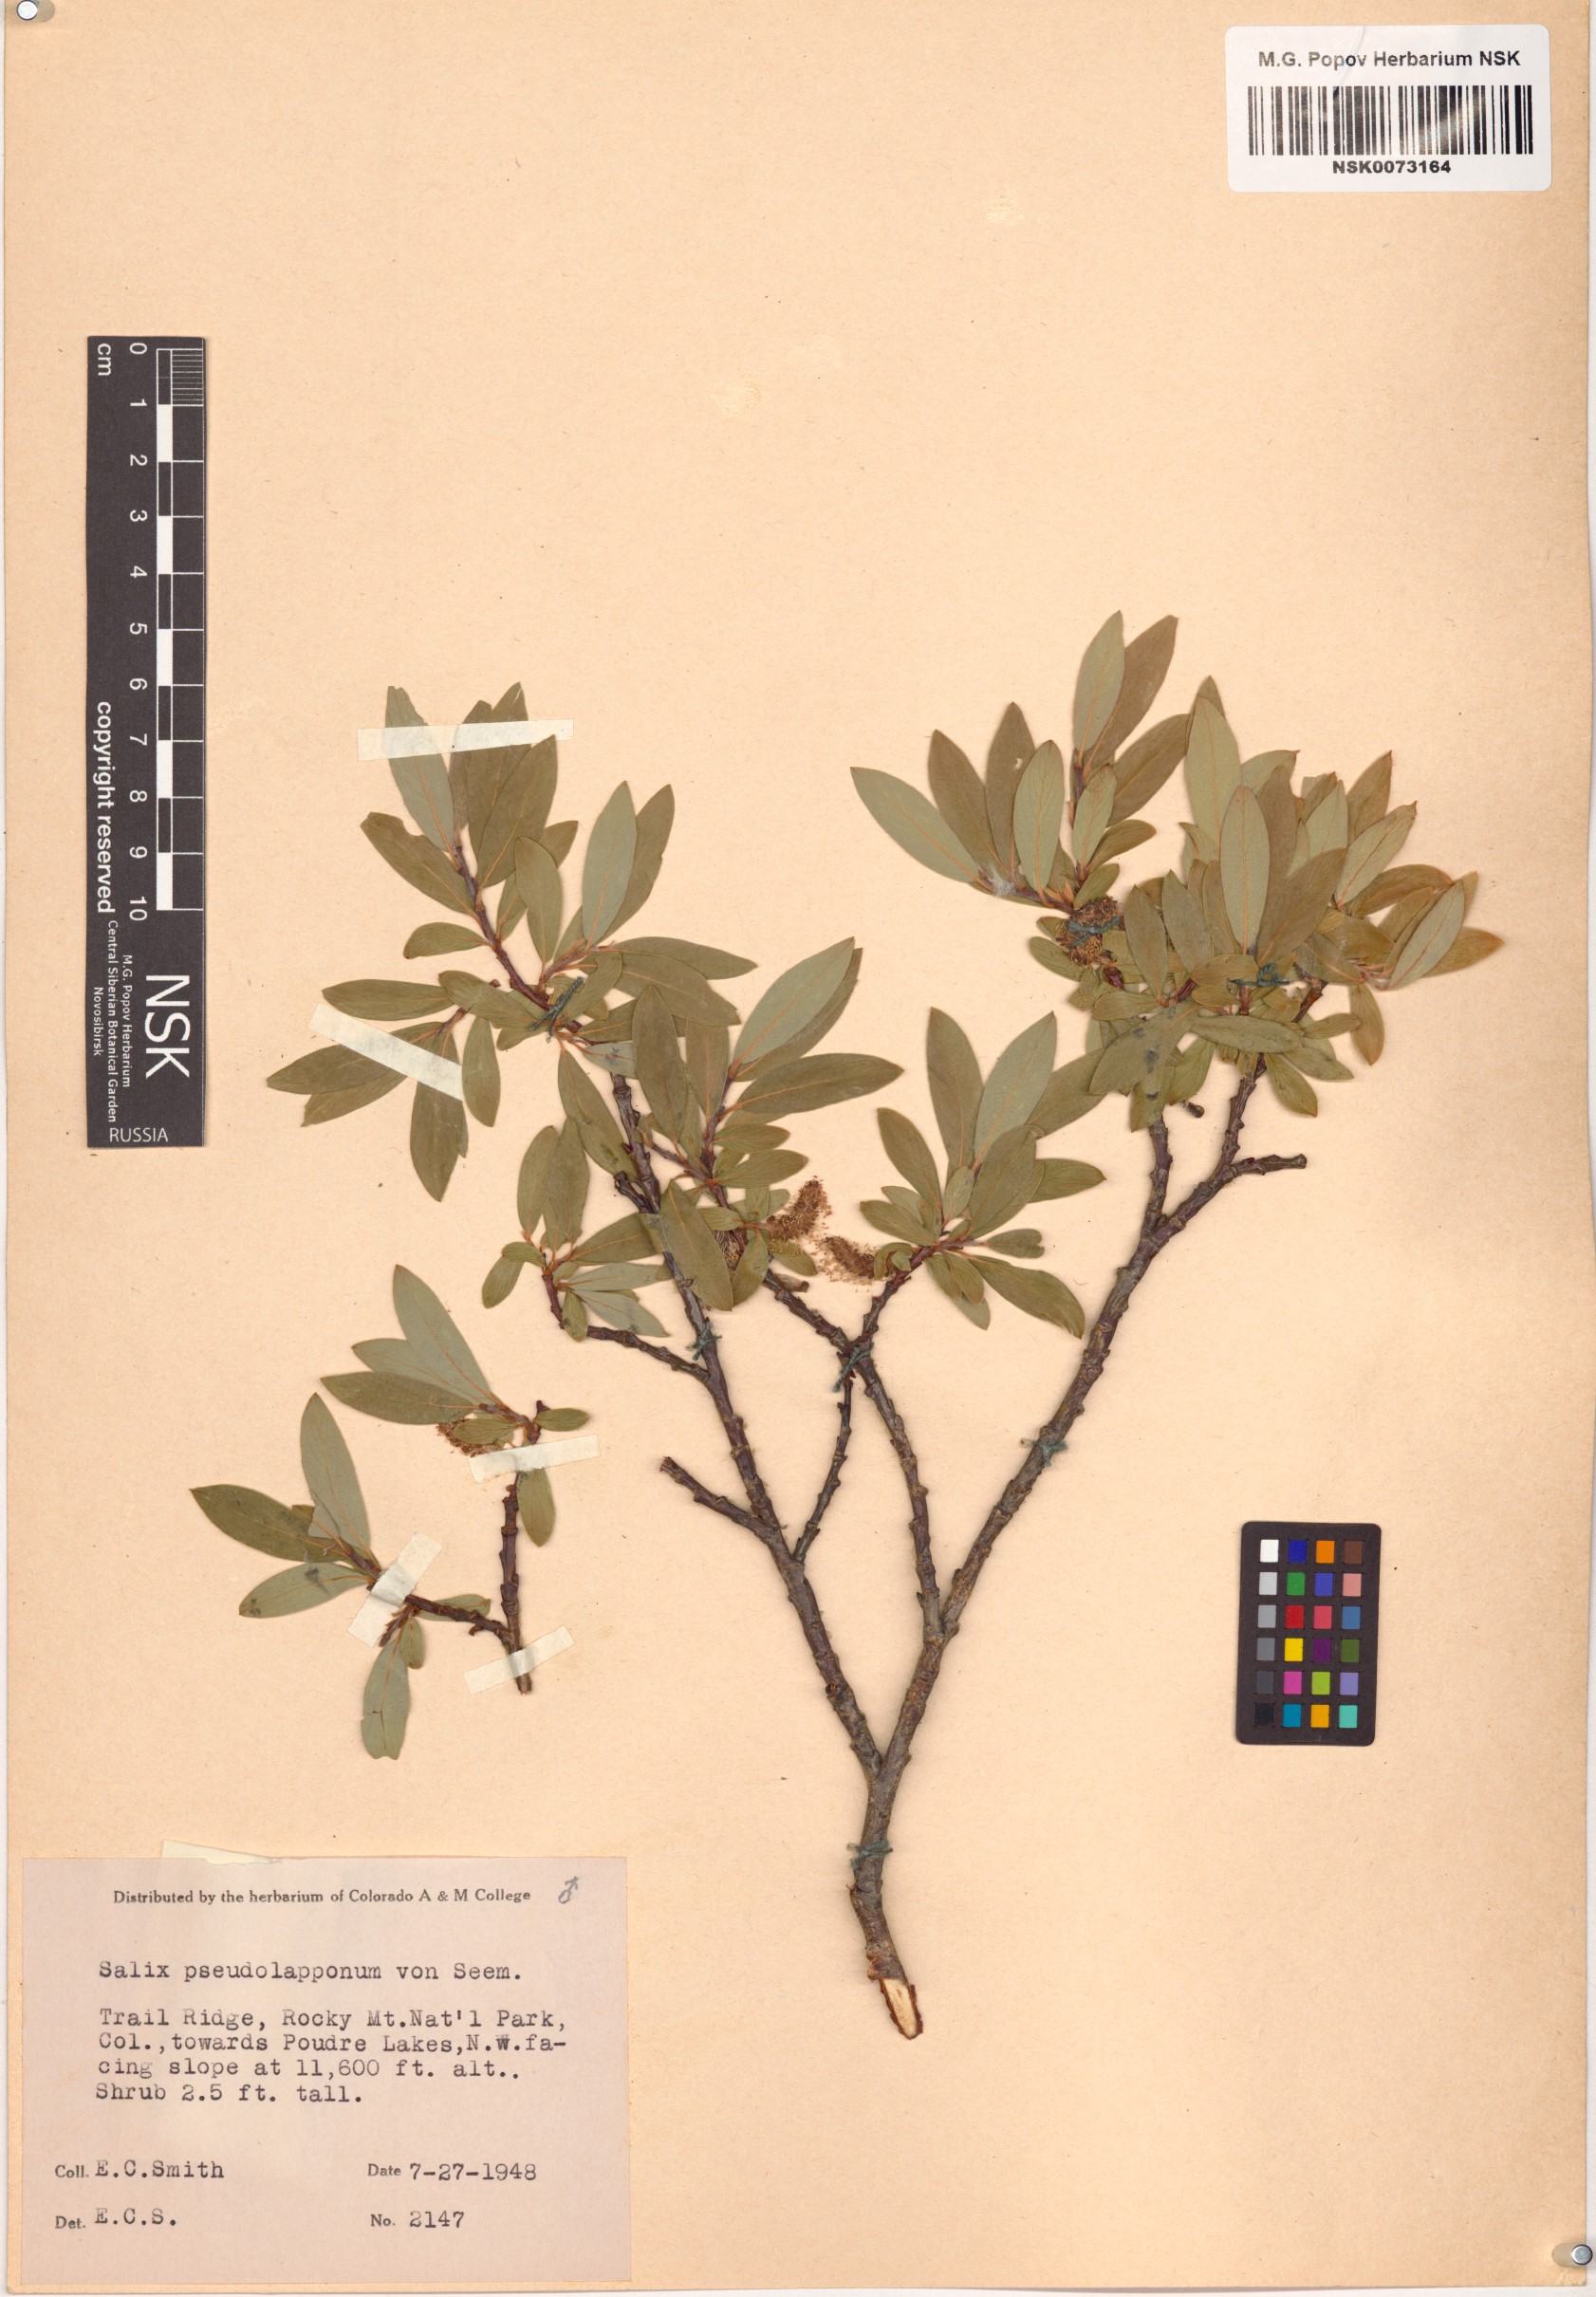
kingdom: Plantae
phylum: Tracheophyta
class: Magnoliopsida
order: Malpighiales
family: Salicaceae
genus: Salix
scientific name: Salix
